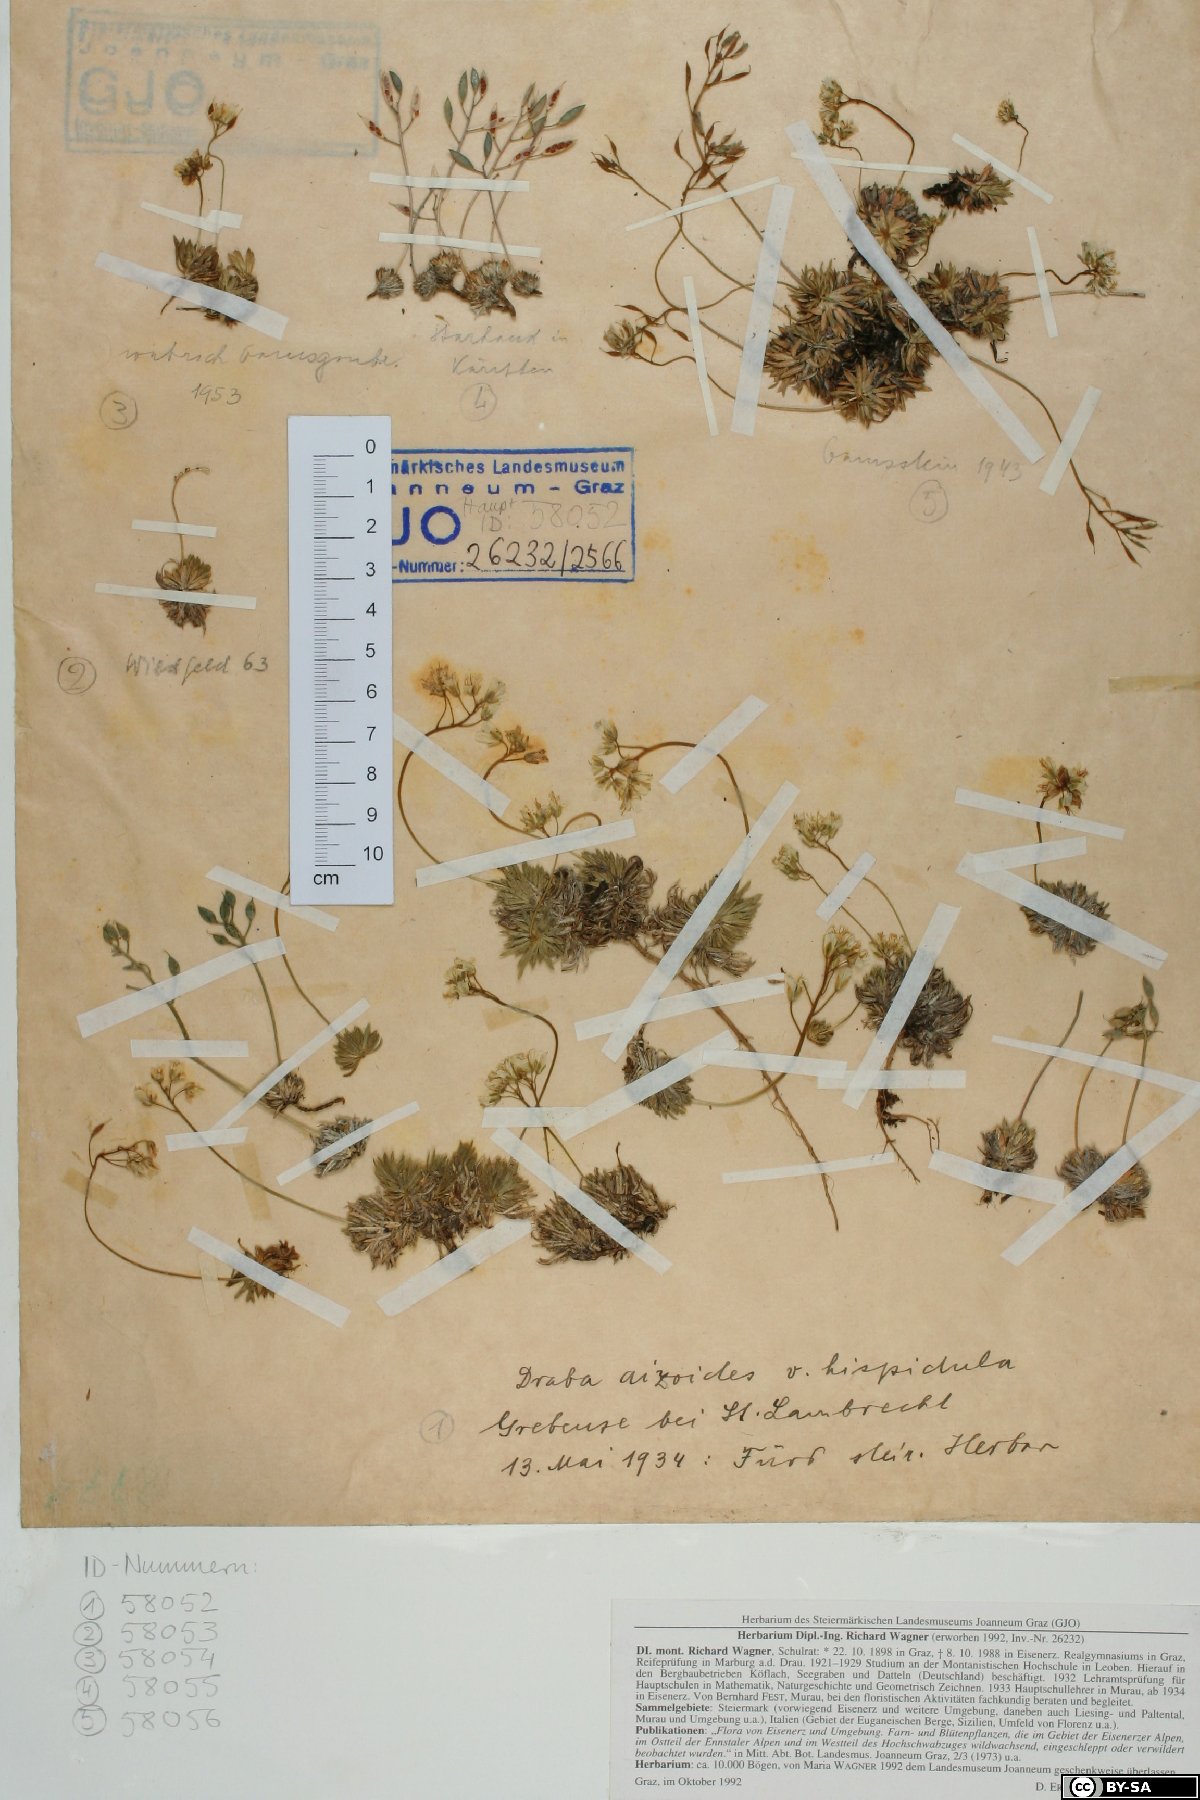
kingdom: Plantae
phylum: Tracheophyta
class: Magnoliopsida
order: Brassicales
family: Brassicaceae
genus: Draba
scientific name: Draba aizoides
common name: Yellow whitlowgrass
